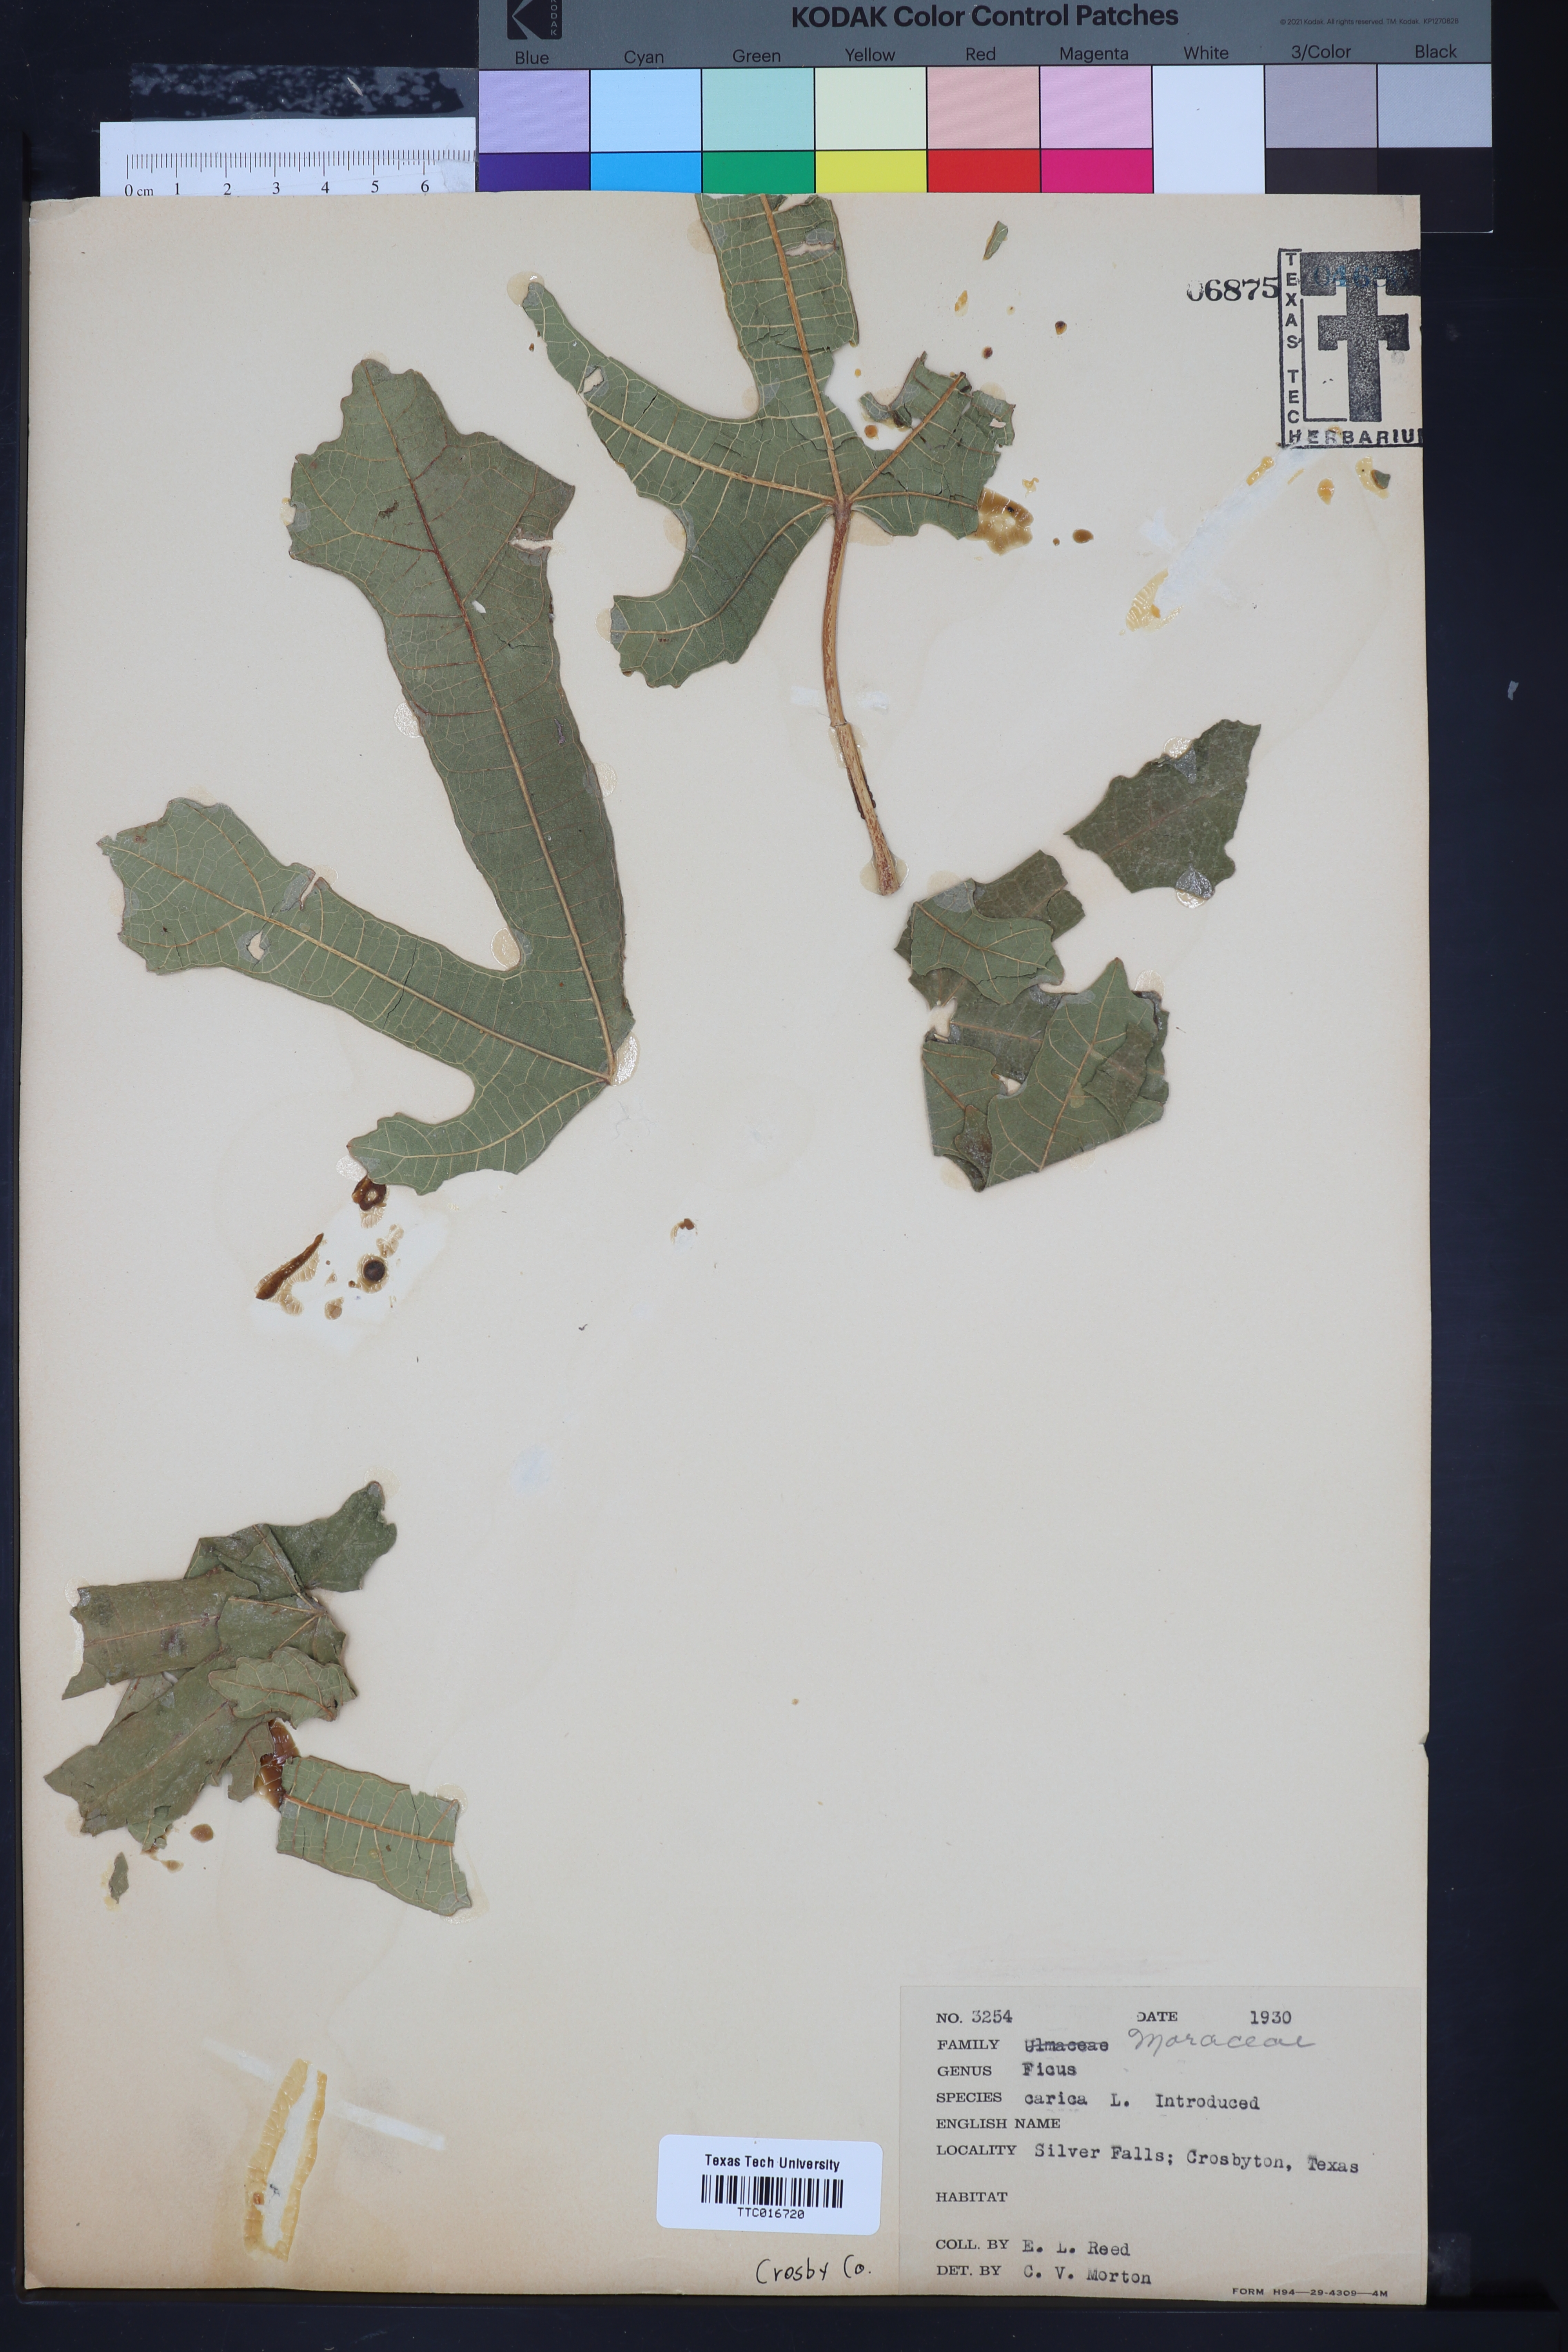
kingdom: Plantae
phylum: Tracheophyta
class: Magnoliopsida
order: Rosales
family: Moraceae
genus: Ficus
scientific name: Ficus carica
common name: Fig
